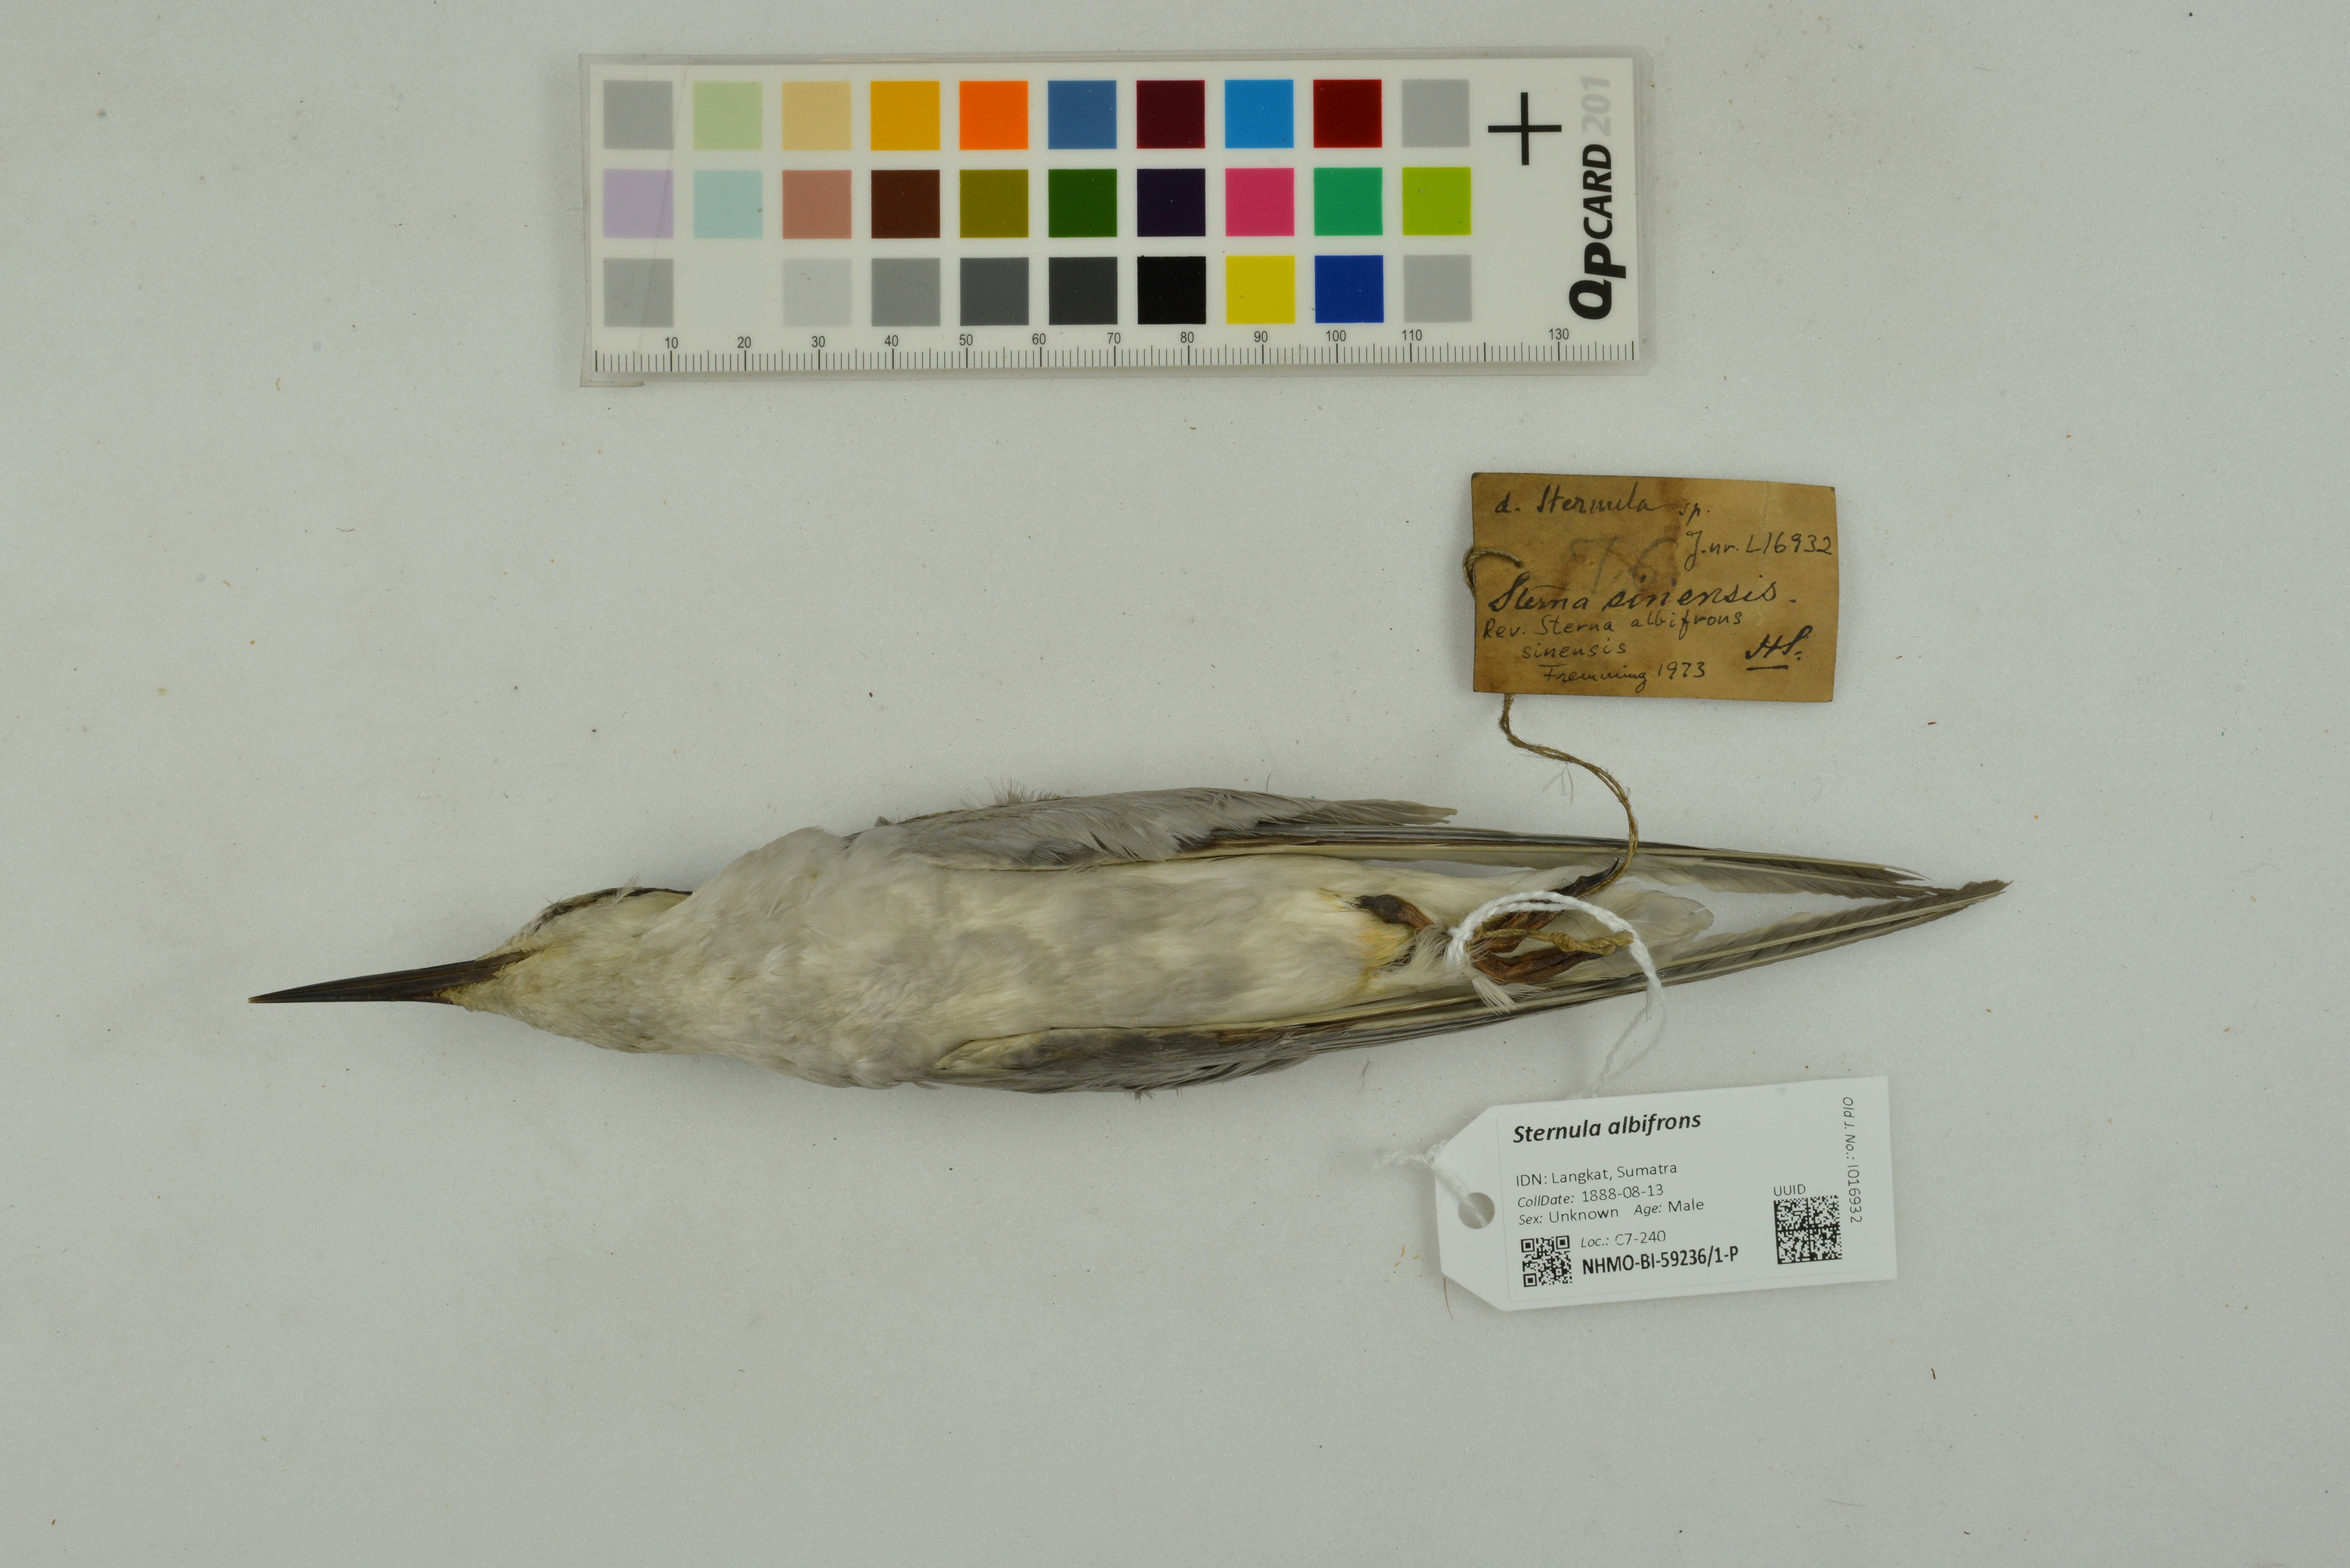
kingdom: Animalia
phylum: Chordata
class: Aves
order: Charadriiformes
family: Laridae
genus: Sternula
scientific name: Sternula albifrons
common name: Little tern
